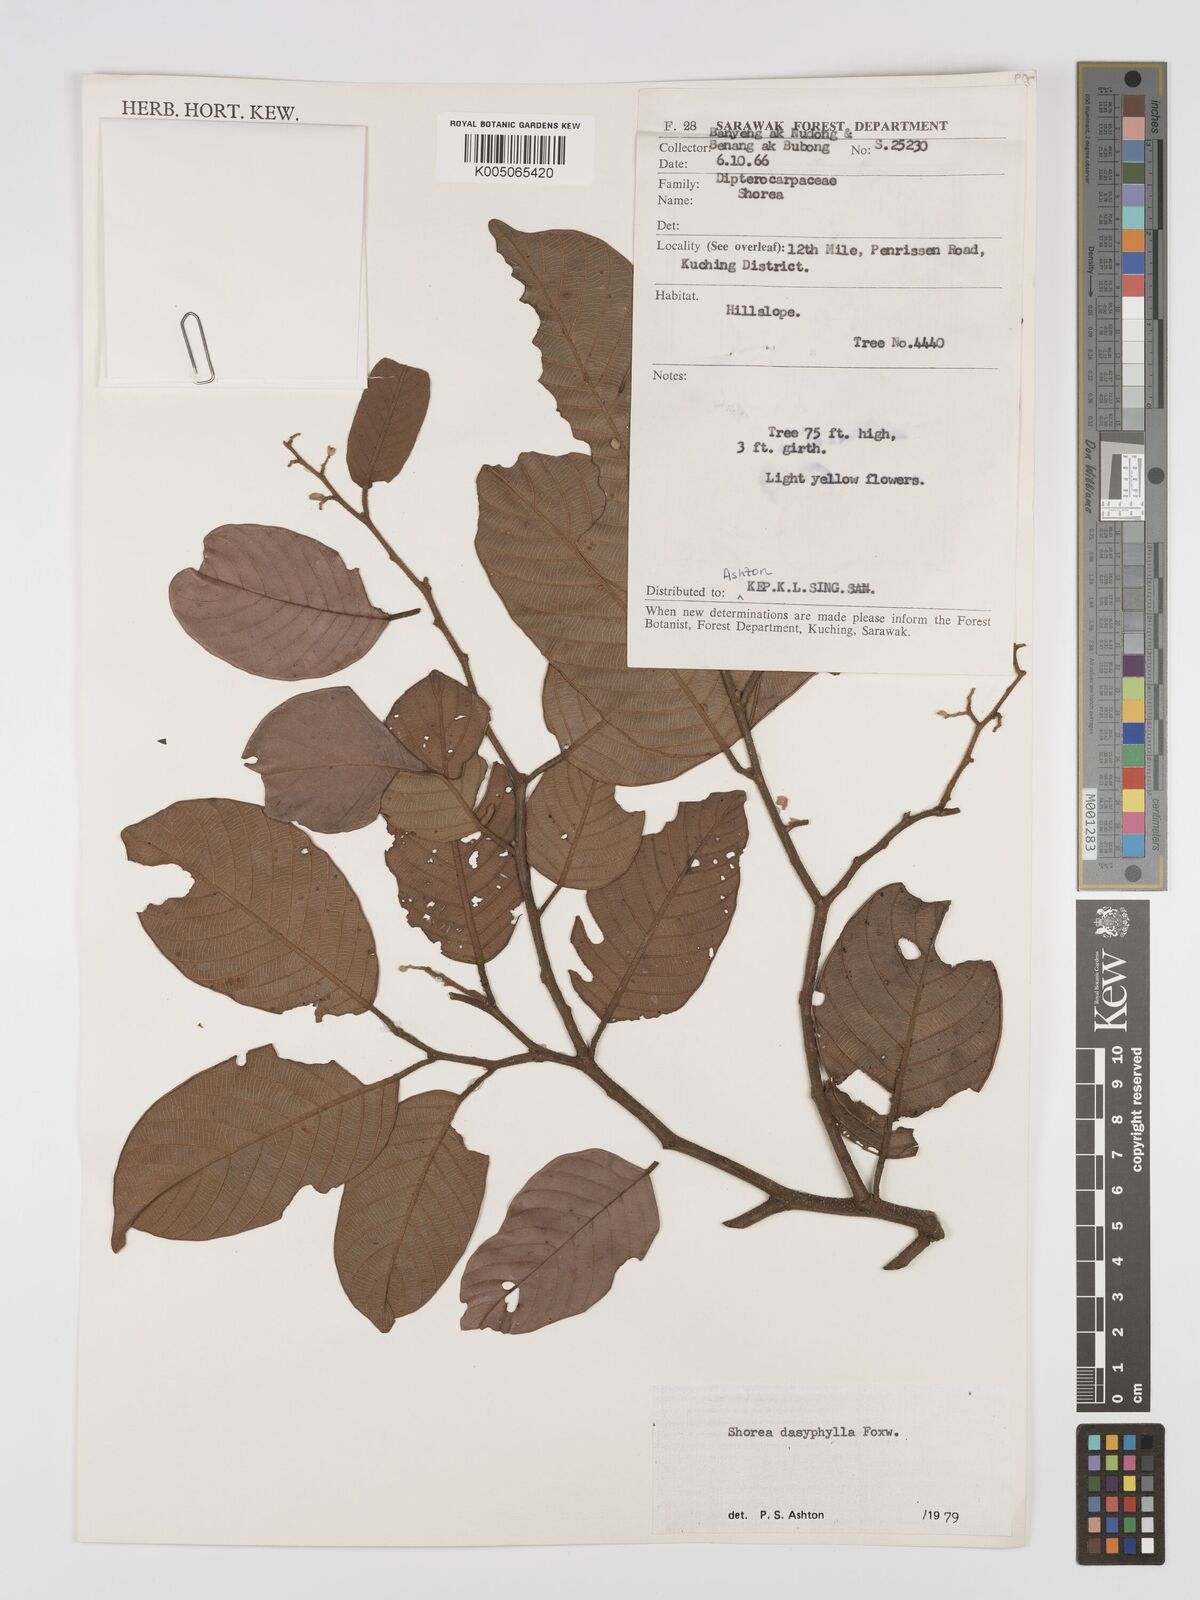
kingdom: Plantae
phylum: Tracheophyta
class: Magnoliopsida
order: Malvales
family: Dipterocarpaceae
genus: Shorea
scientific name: Shorea dasyphylla
